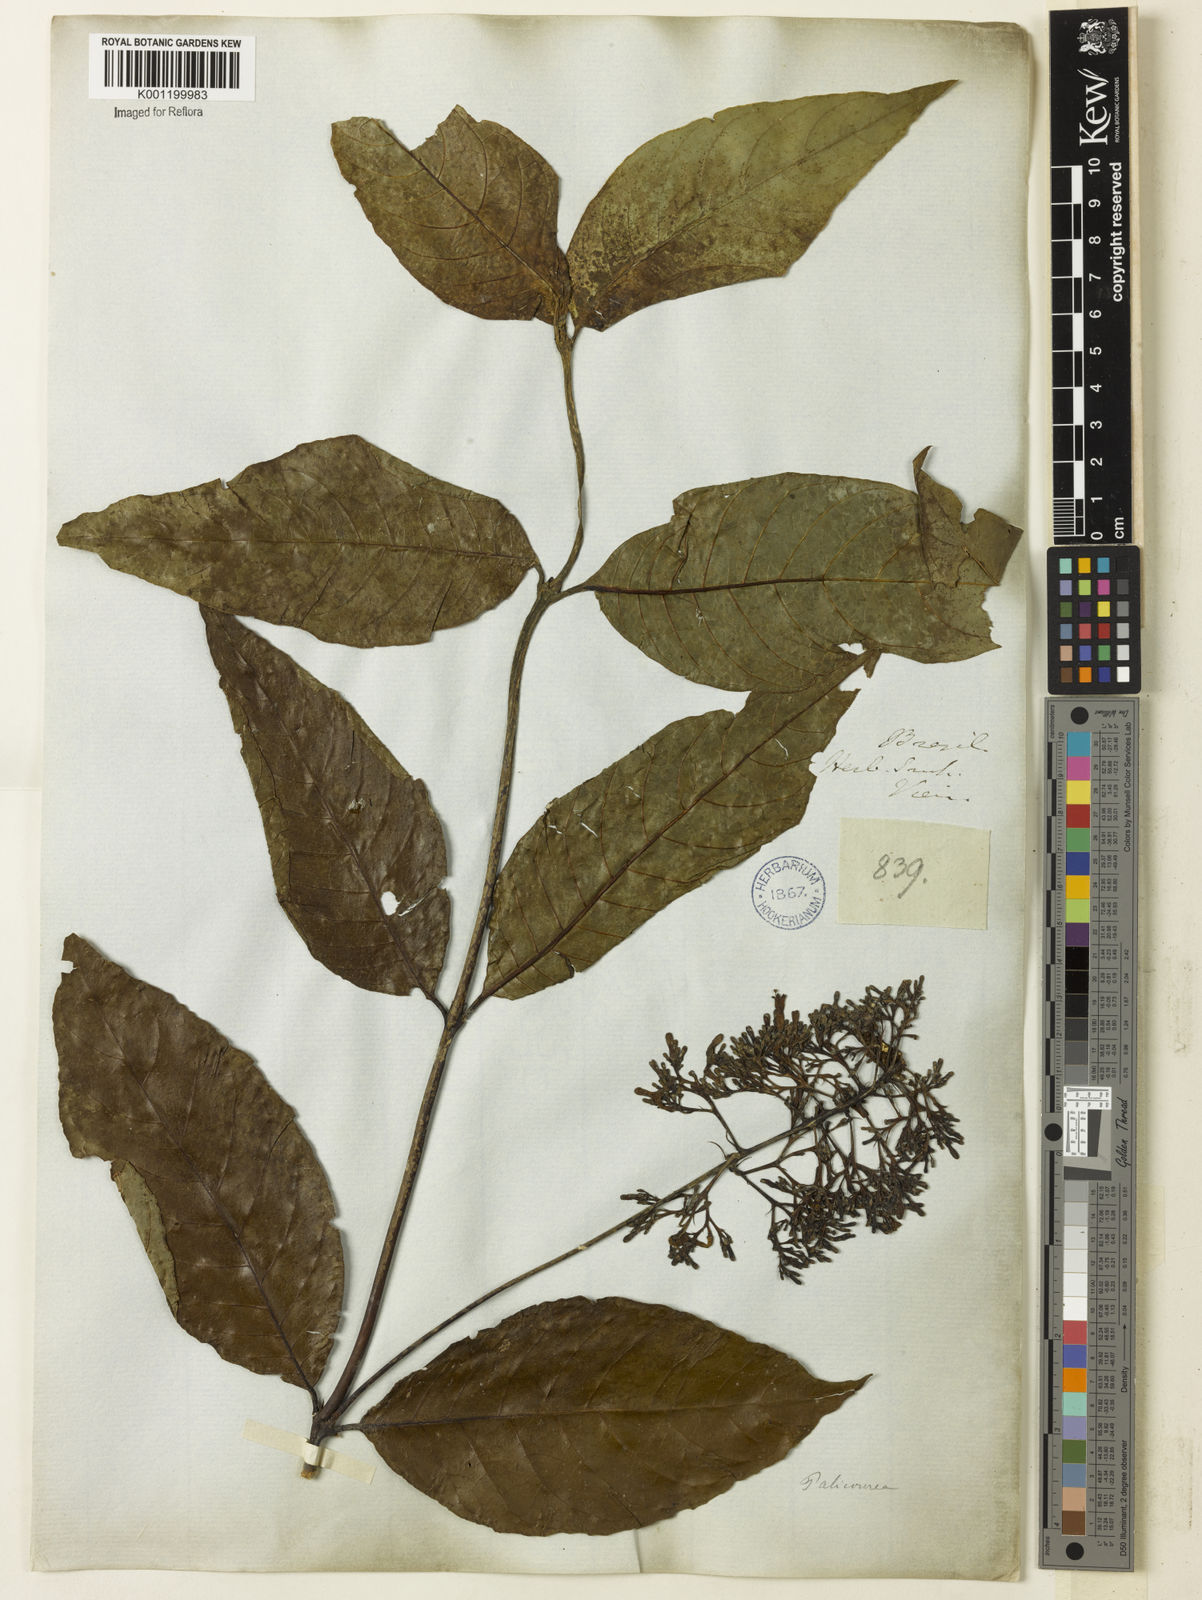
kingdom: Plantae
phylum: Tracheophyta
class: Magnoliopsida
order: Gentianales
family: Rubiaceae
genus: Palicourea
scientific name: Palicourea
